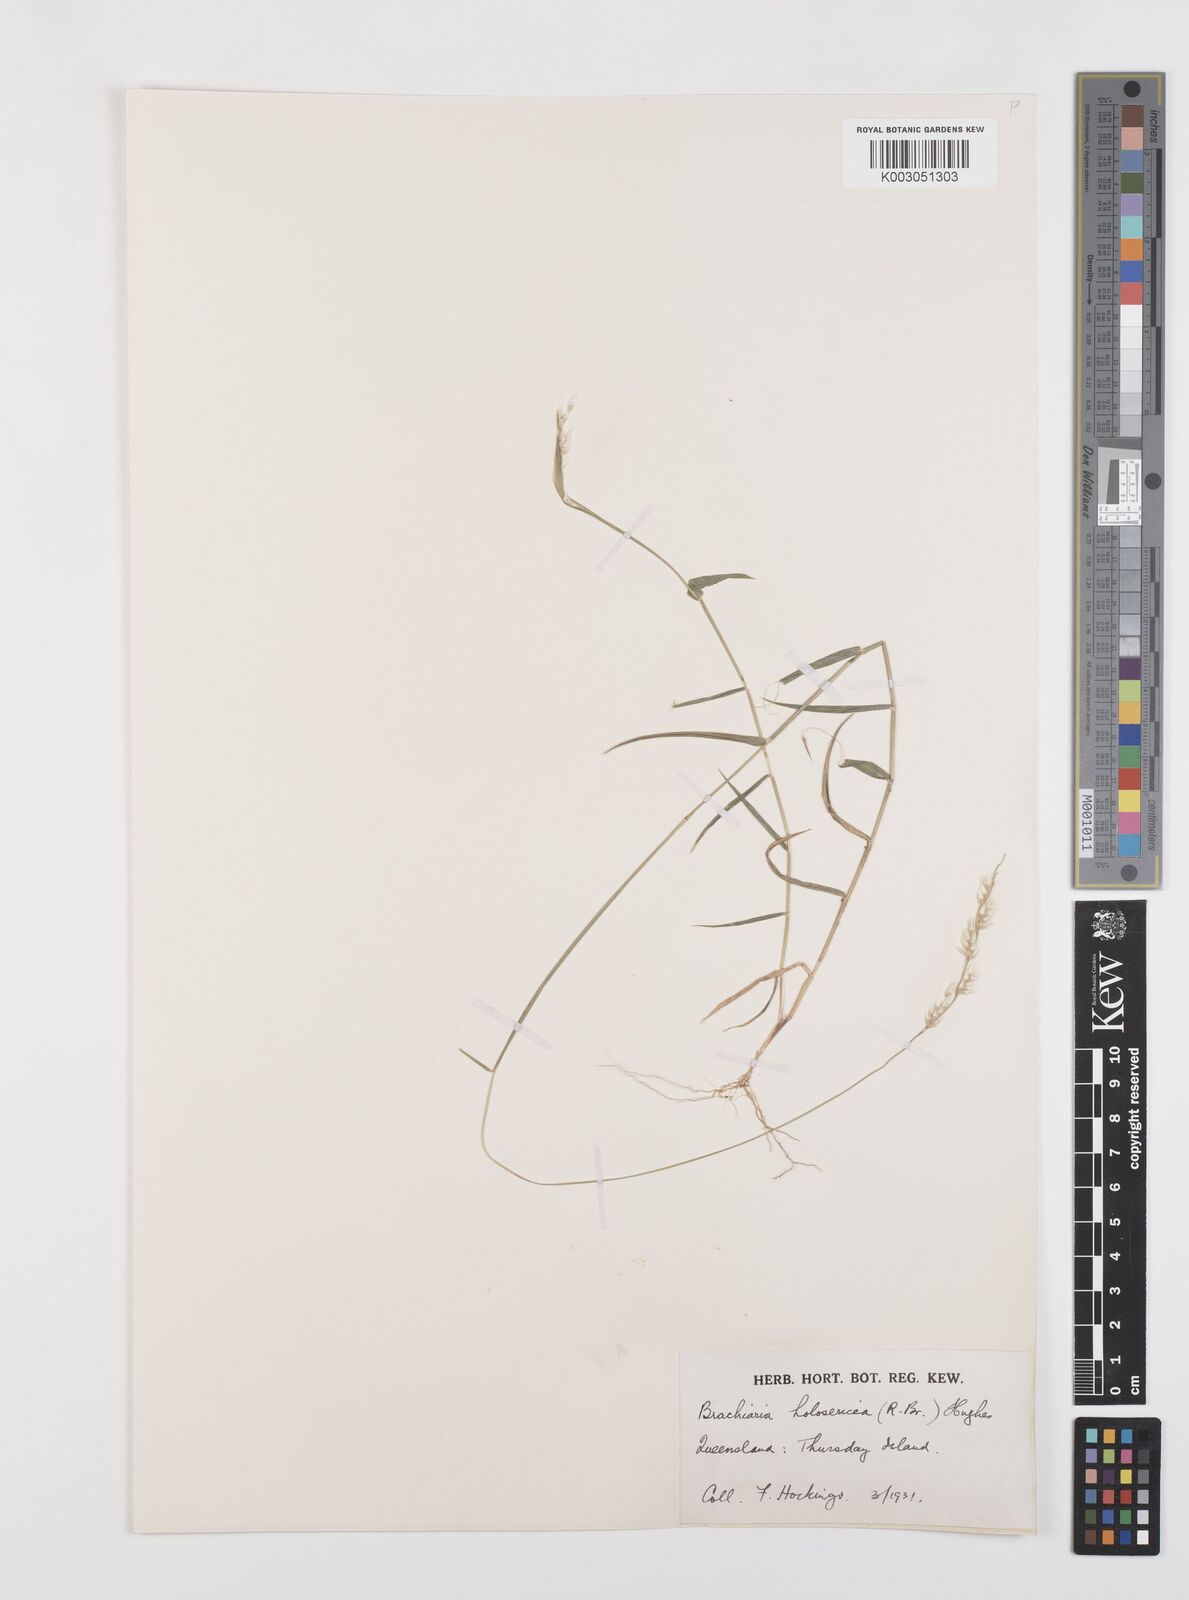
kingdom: Plantae
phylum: Tracheophyta
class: Liliopsida
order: Poales
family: Poaceae
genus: Urochloa
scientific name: Urochloa holosericea
